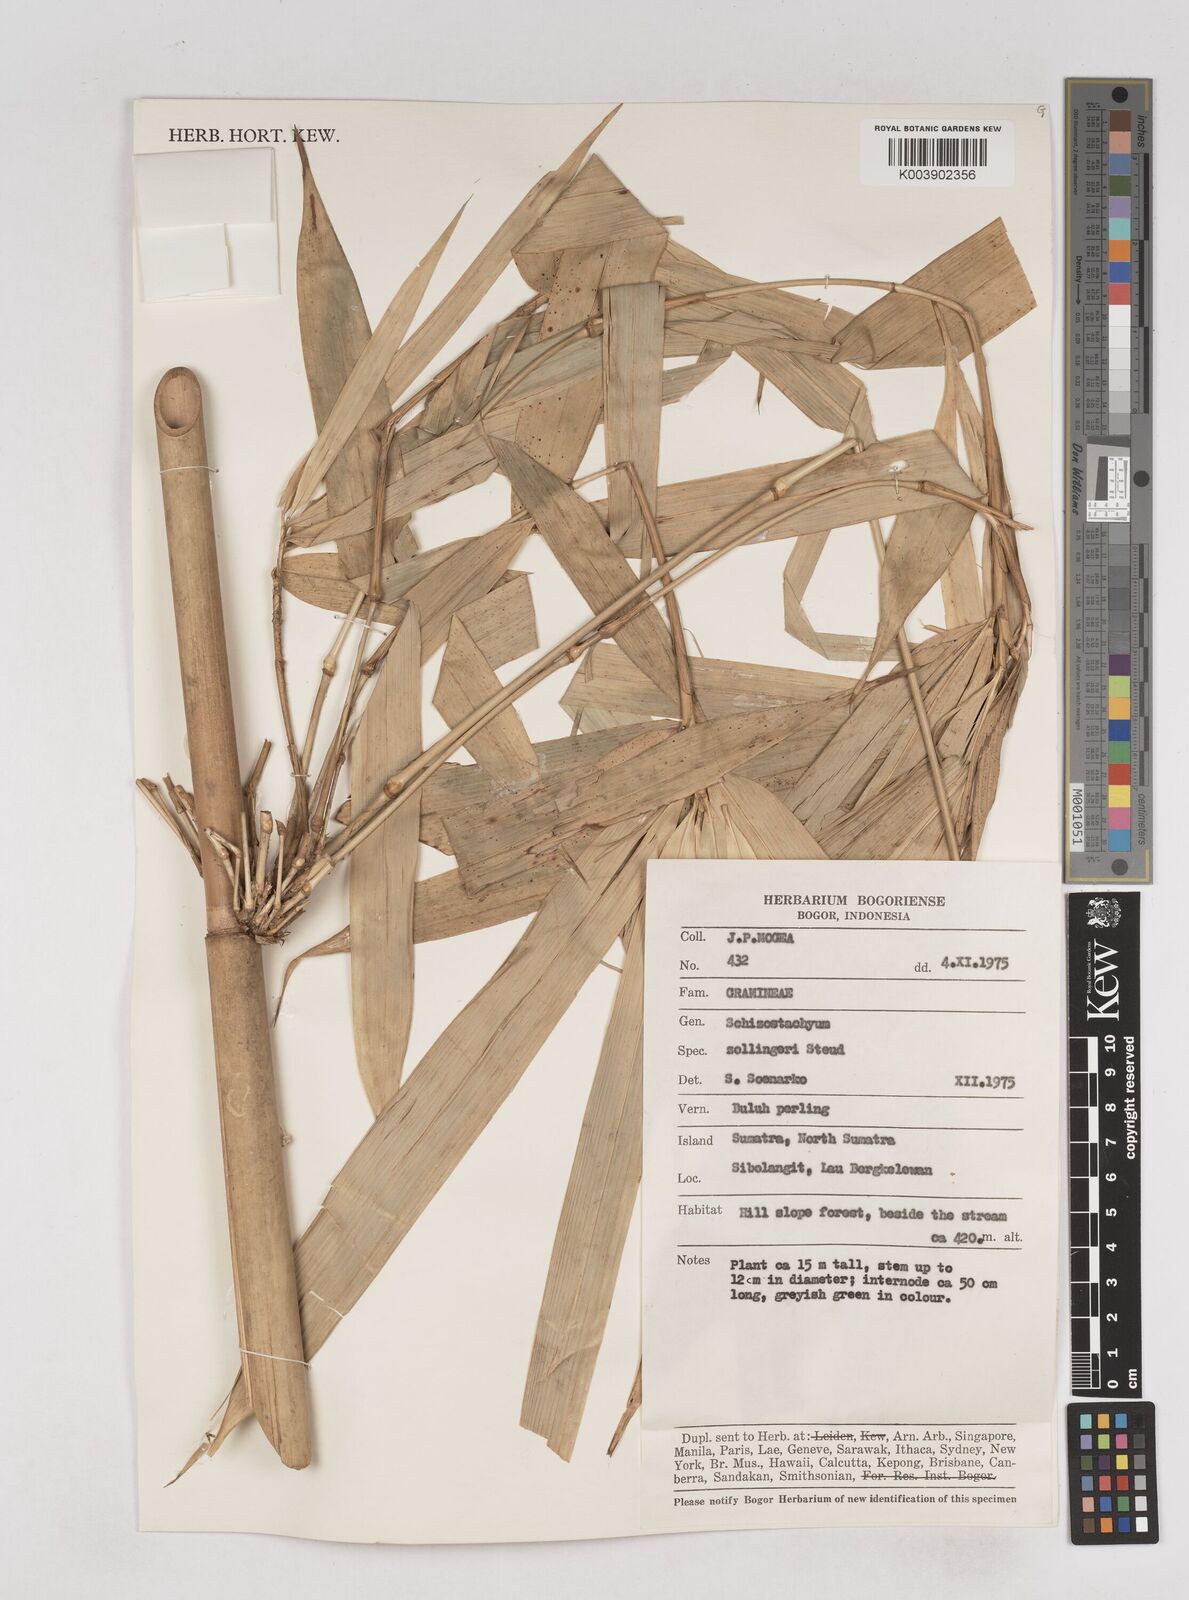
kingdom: Plantae
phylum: Tracheophyta
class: Liliopsida
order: Poales
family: Poaceae
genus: Schizostachyum
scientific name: Schizostachyum zollingeri
